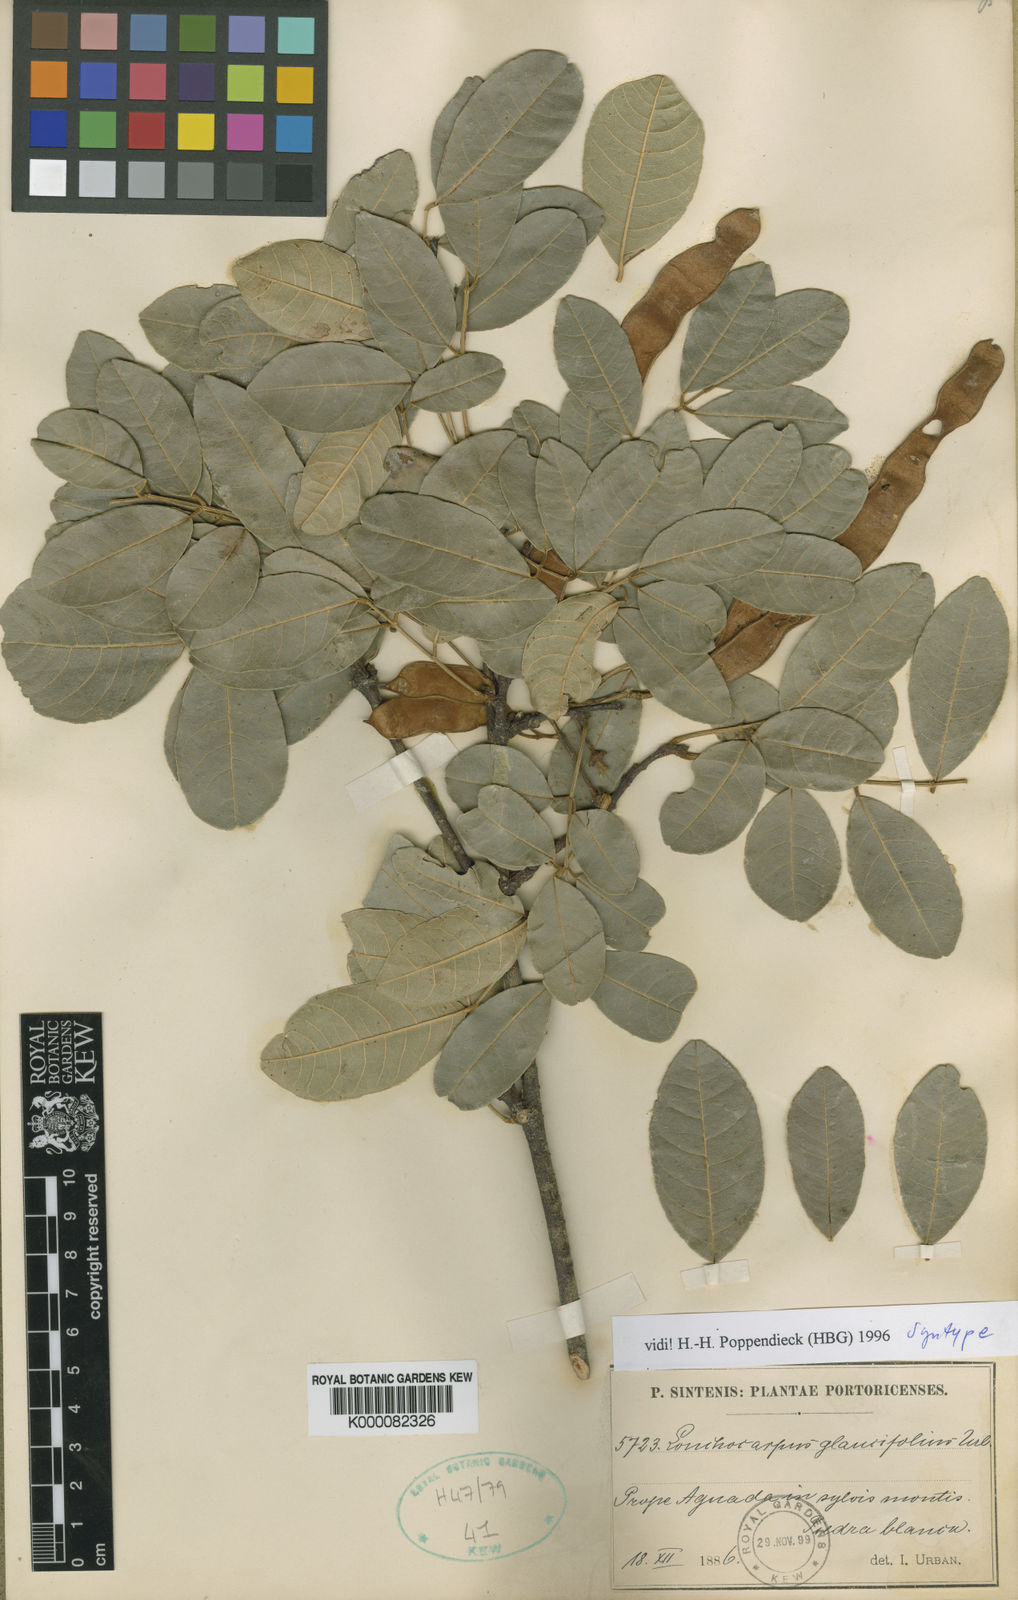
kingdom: Plantae
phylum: Tracheophyta
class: Magnoliopsida
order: Fabales
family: Fabaceae
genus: Lonchocarpus
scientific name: Lonchocarpus glaucifolius
